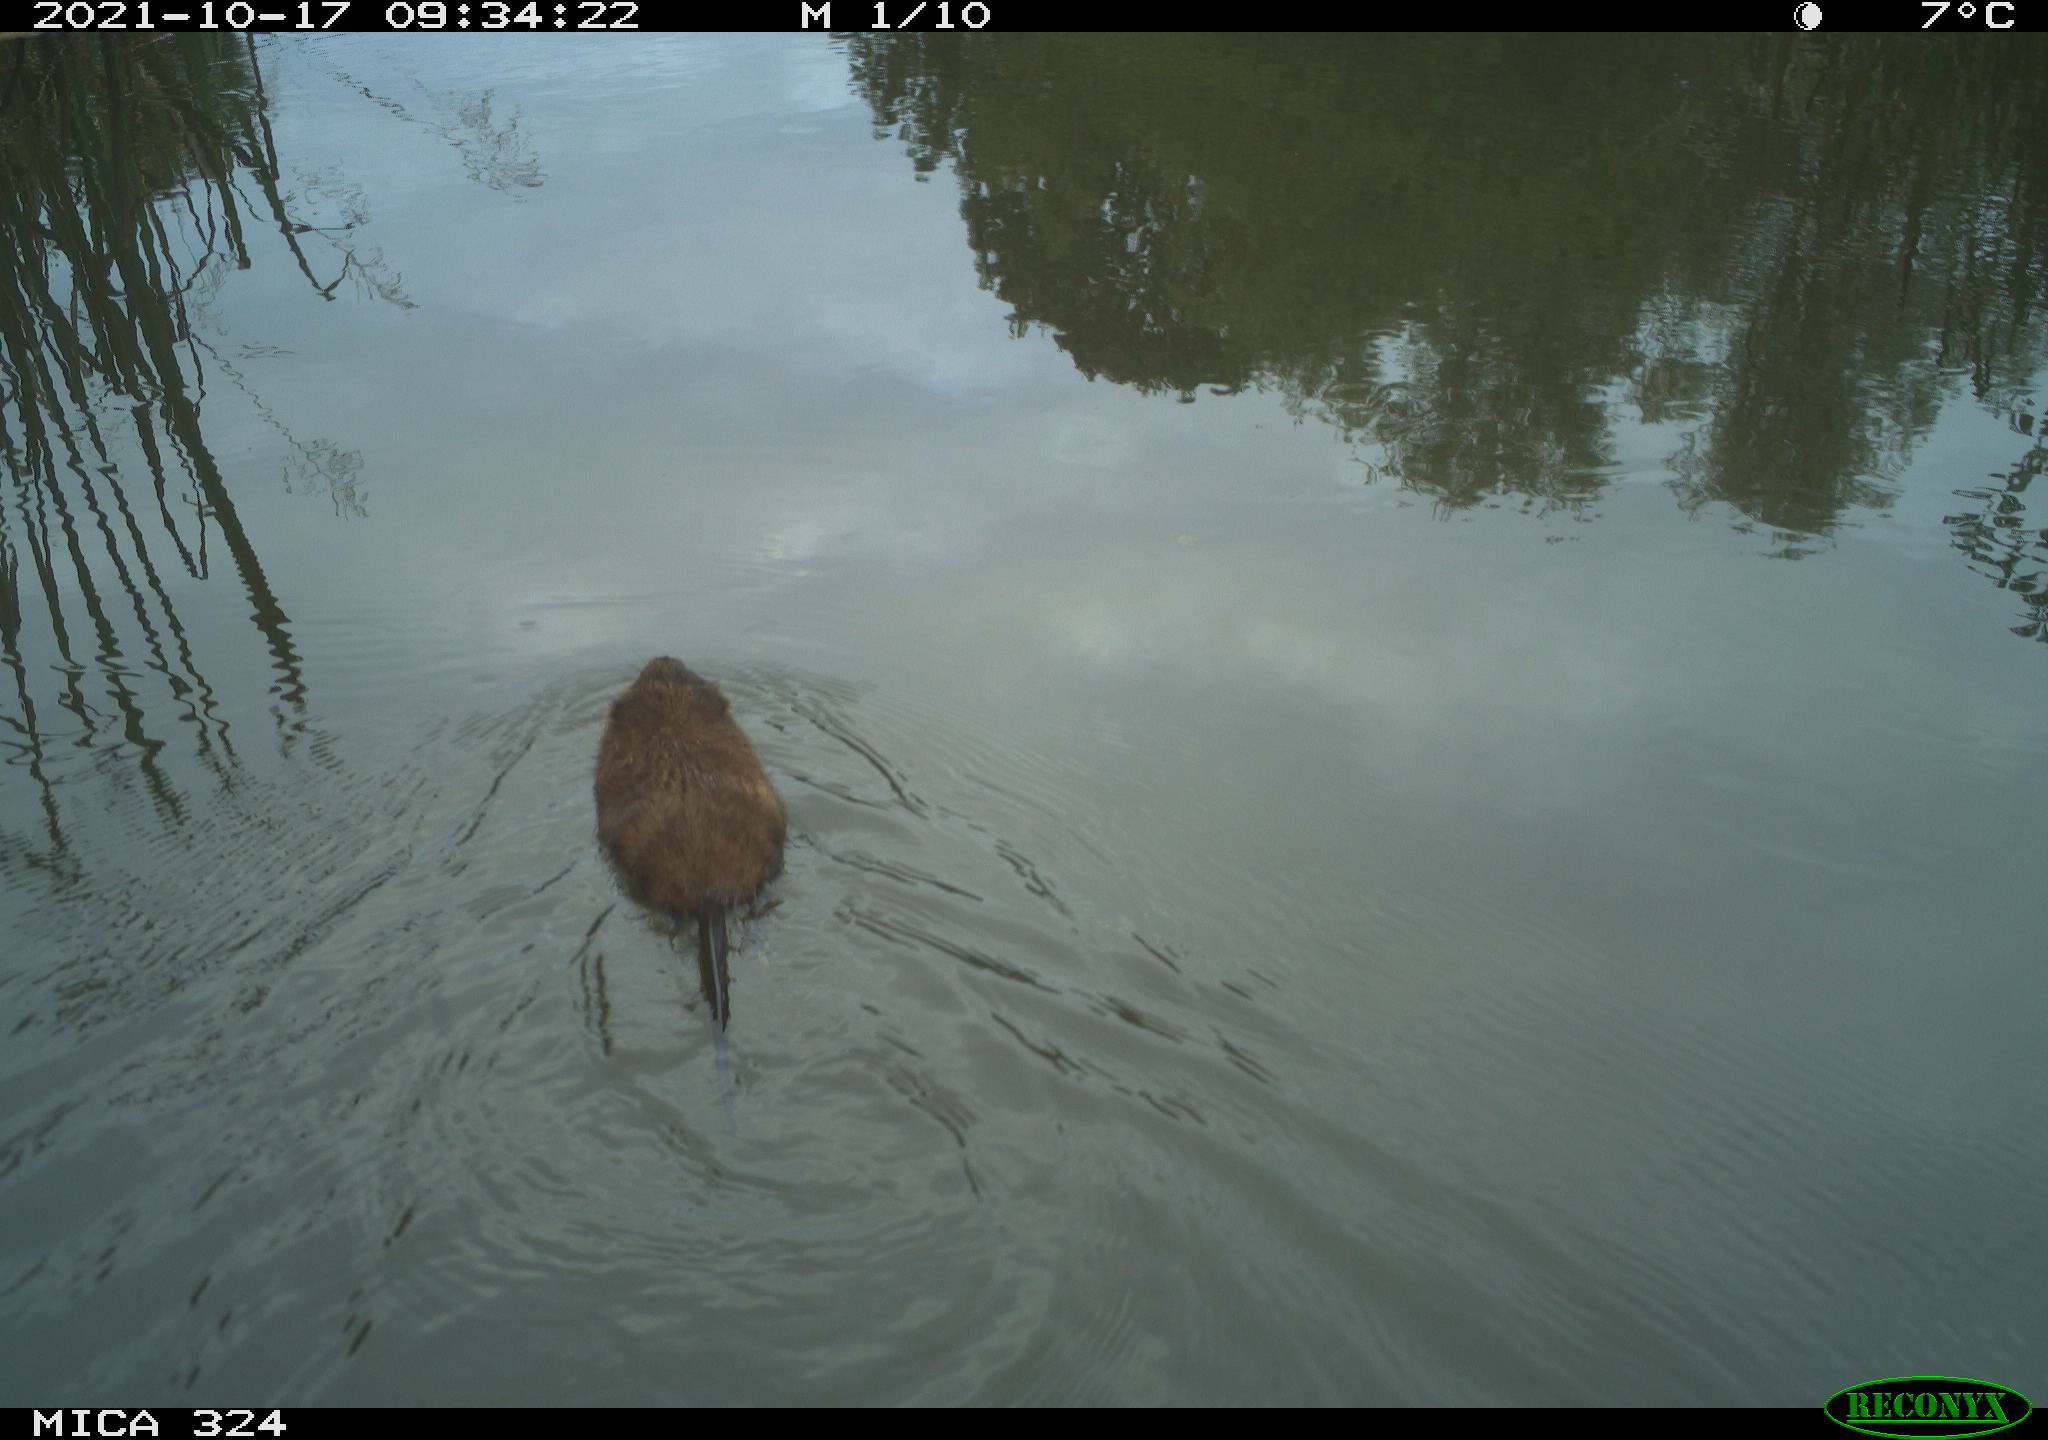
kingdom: Animalia
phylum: Chordata
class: Mammalia
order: Rodentia
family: Cricetidae
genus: Ondatra
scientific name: Ondatra zibethicus
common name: Muskrat
